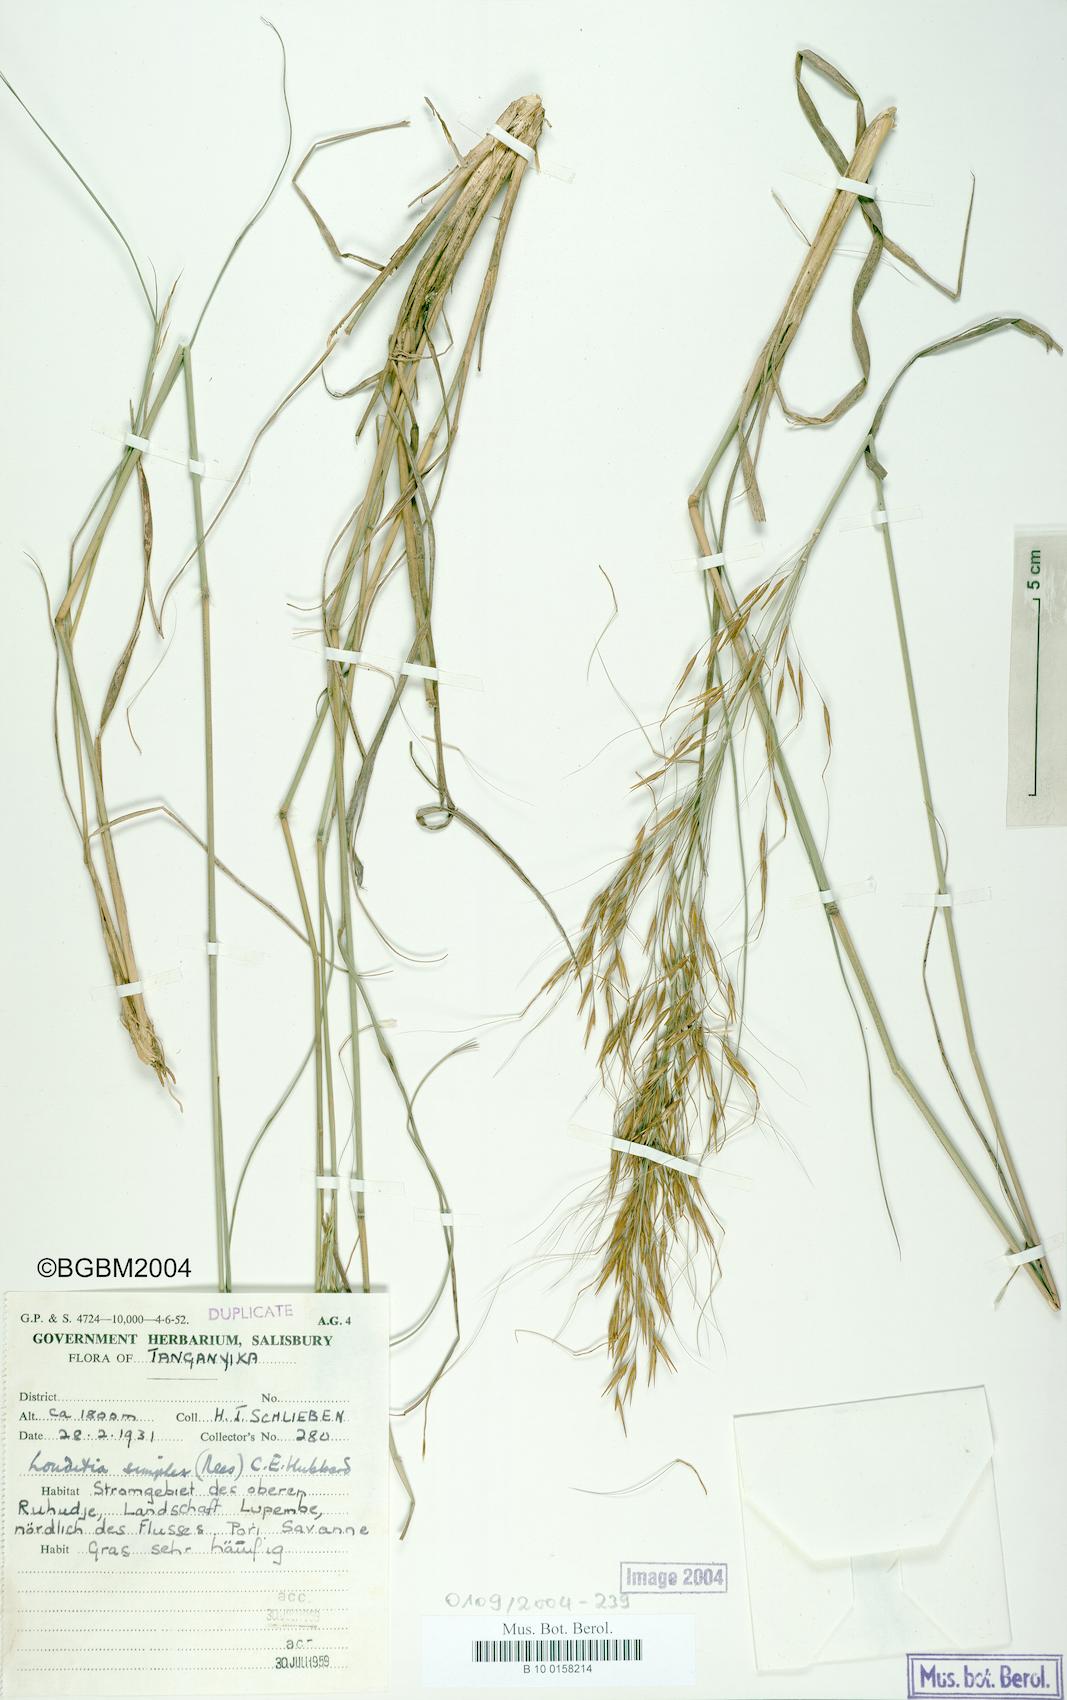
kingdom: Plantae
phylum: Tracheophyta
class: Liliopsida
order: Poales
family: Poaceae
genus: Loudetia
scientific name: Loudetia simplex
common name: Common russet grass
